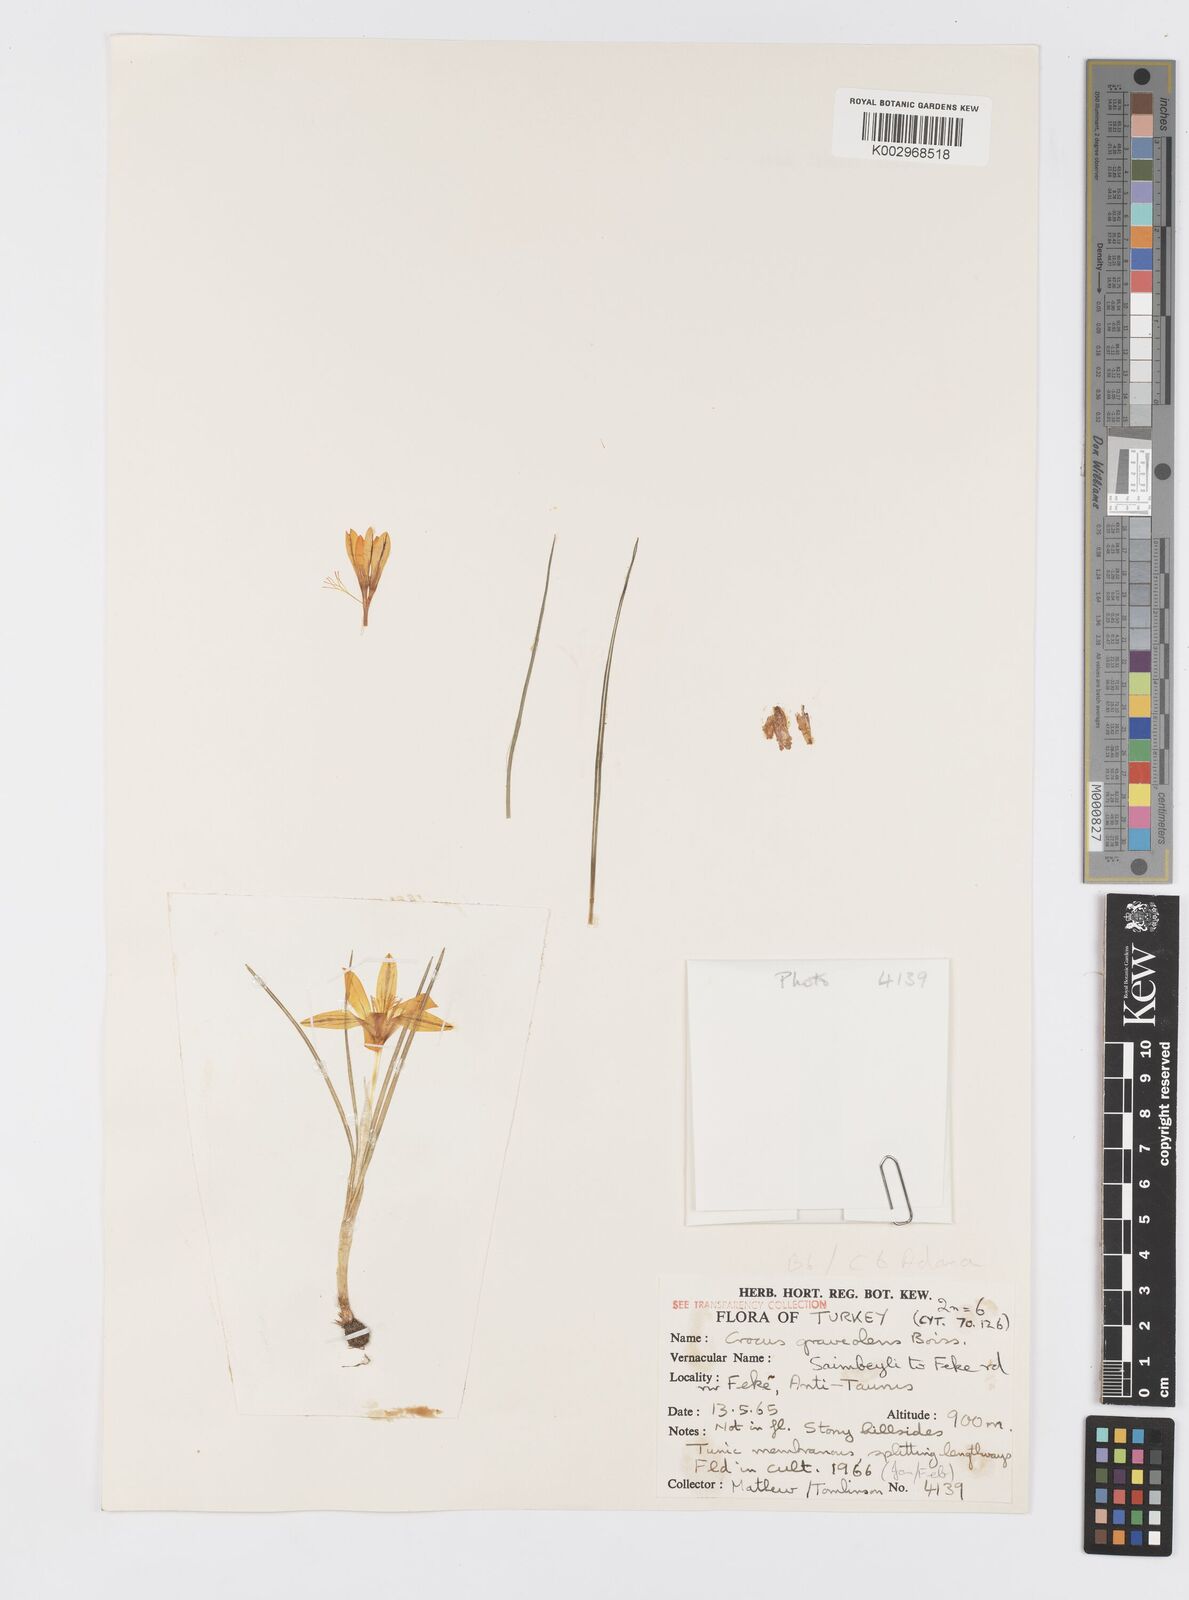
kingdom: Plantae
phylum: Tracheophyta
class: Liliopsida
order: Asparagales
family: Iridaceae
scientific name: Iridaceae
